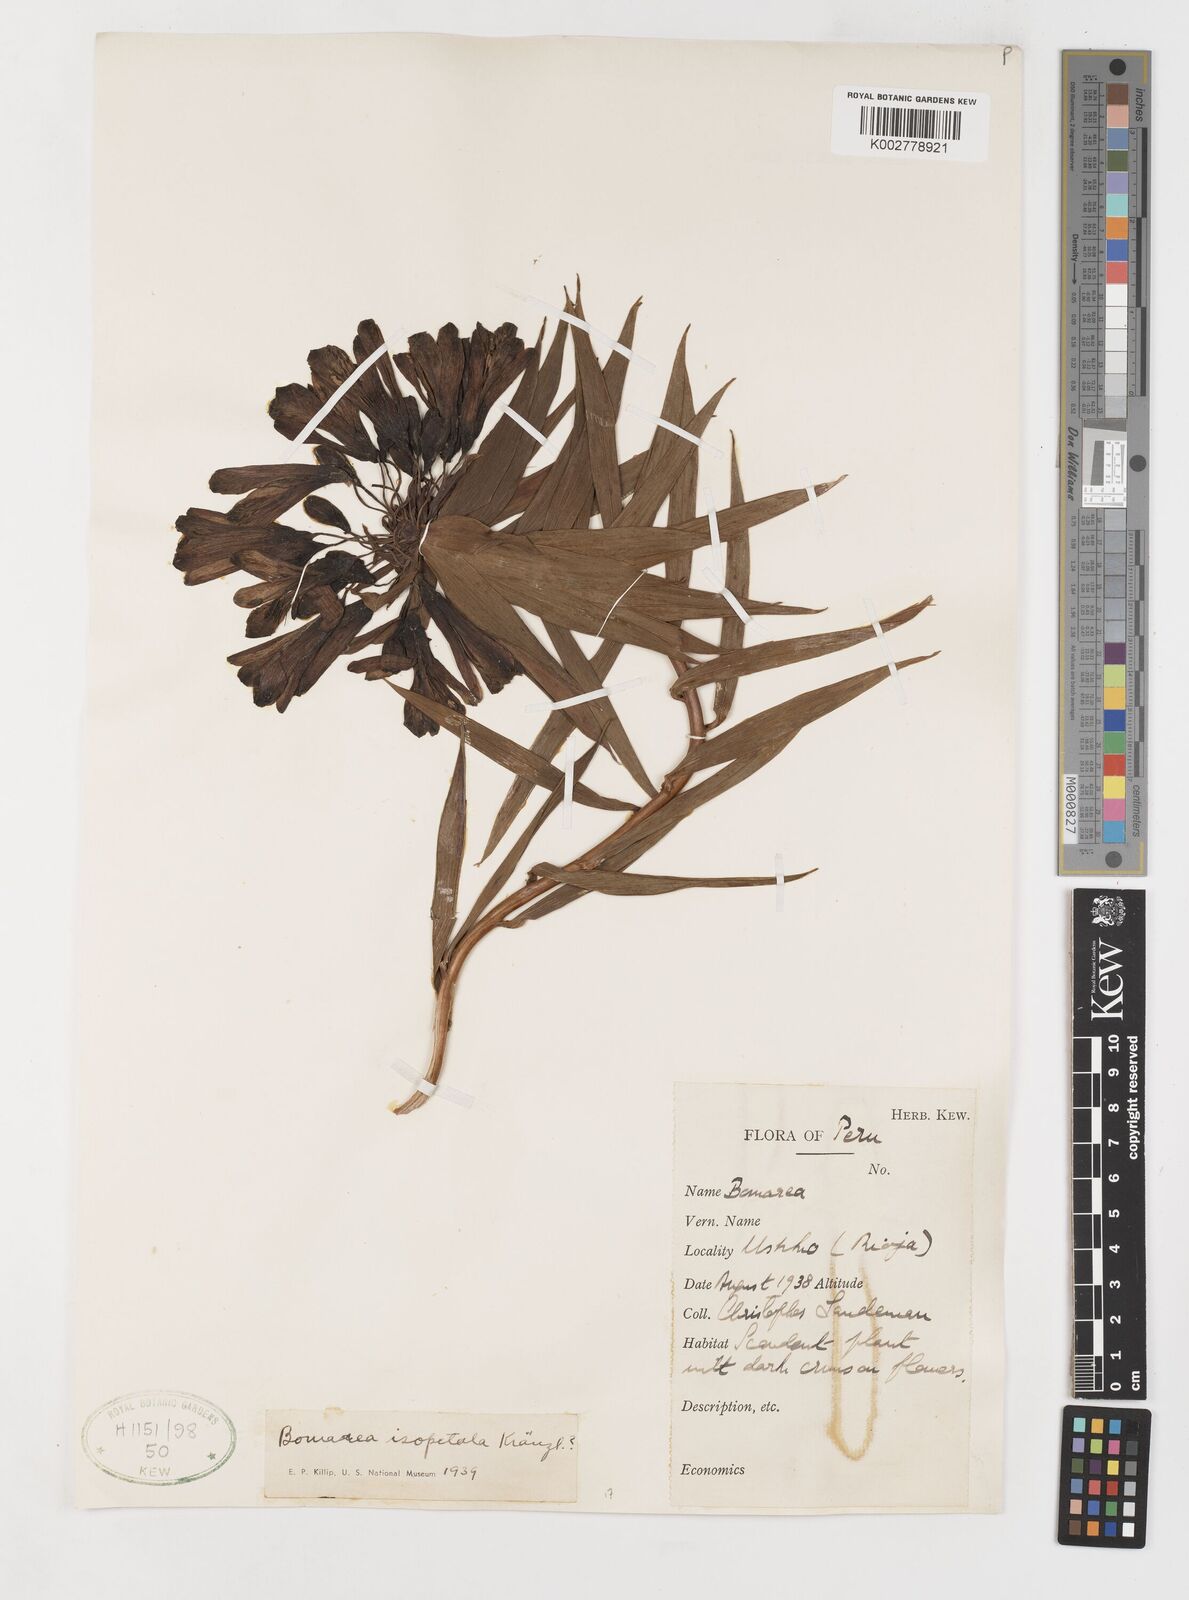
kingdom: Plantae
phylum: Tracheophyta
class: Liliopsida
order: Liliales
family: Alstroemeriaceae
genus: Bomarea
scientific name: Bomarea angulata
